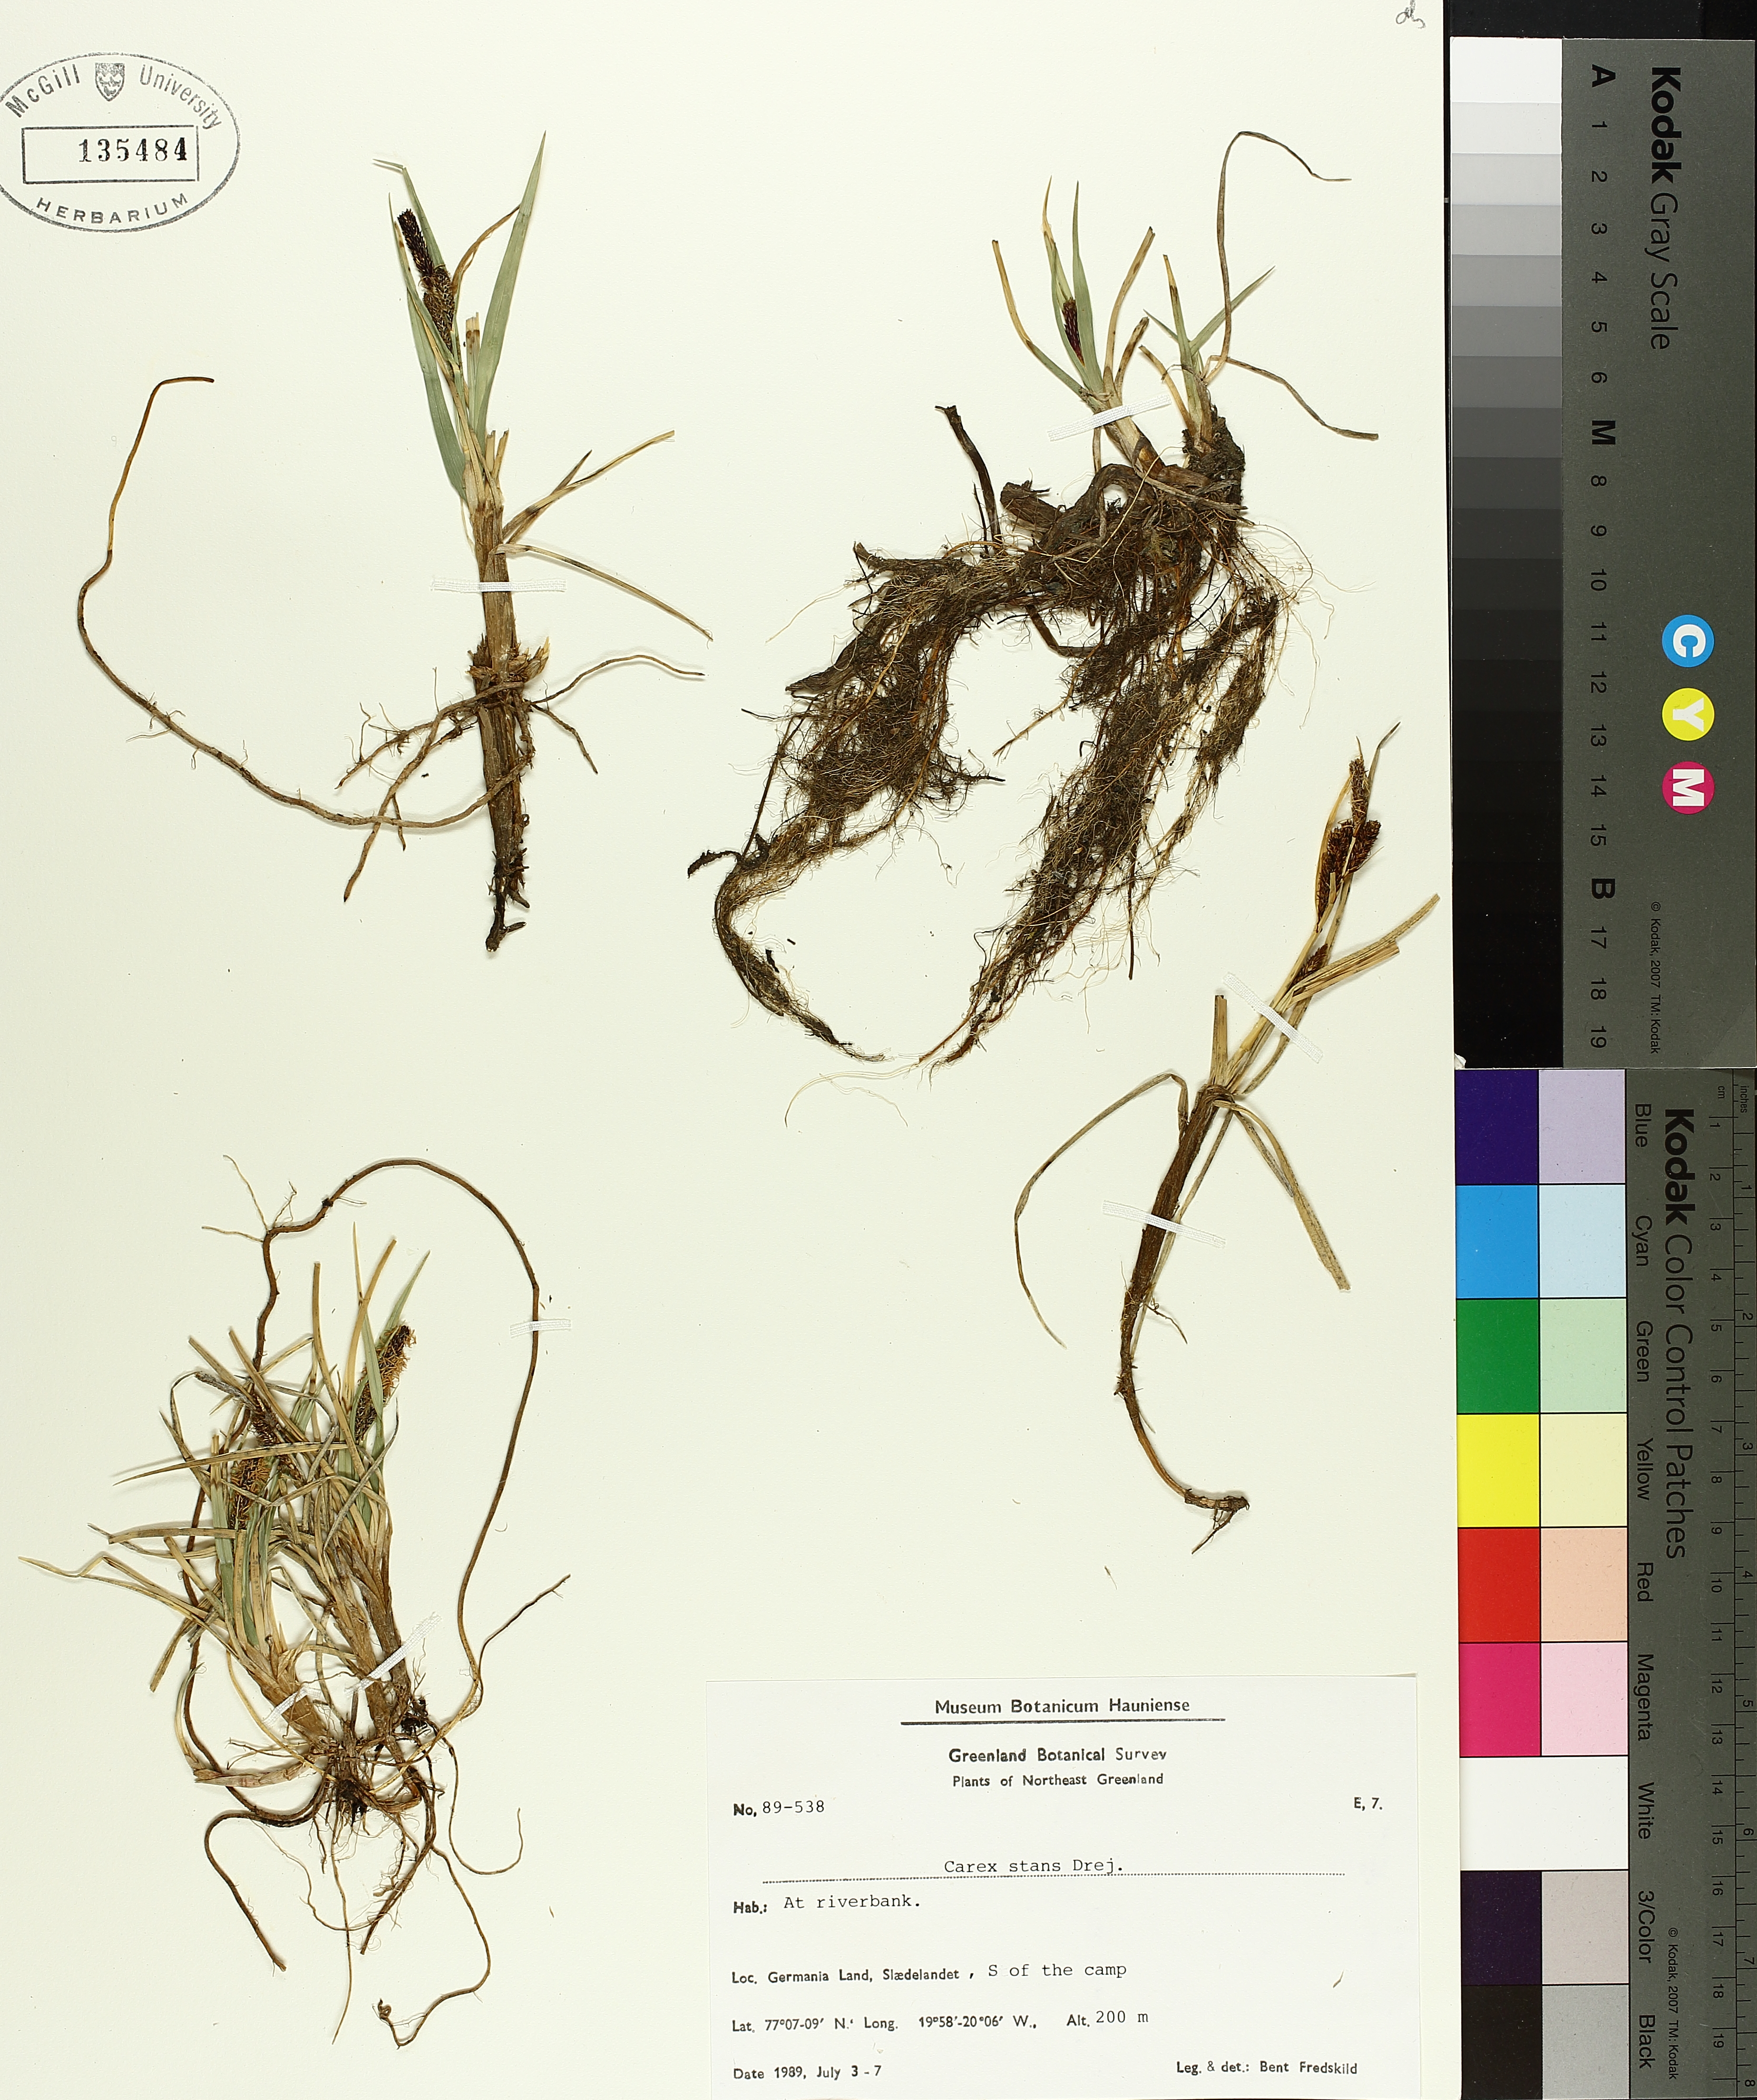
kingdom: Plantae
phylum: Tracheophyta
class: Liliopsida
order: Poales
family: Cyperaceae
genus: Carex
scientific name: Carex aquatilis
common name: Water sedge
